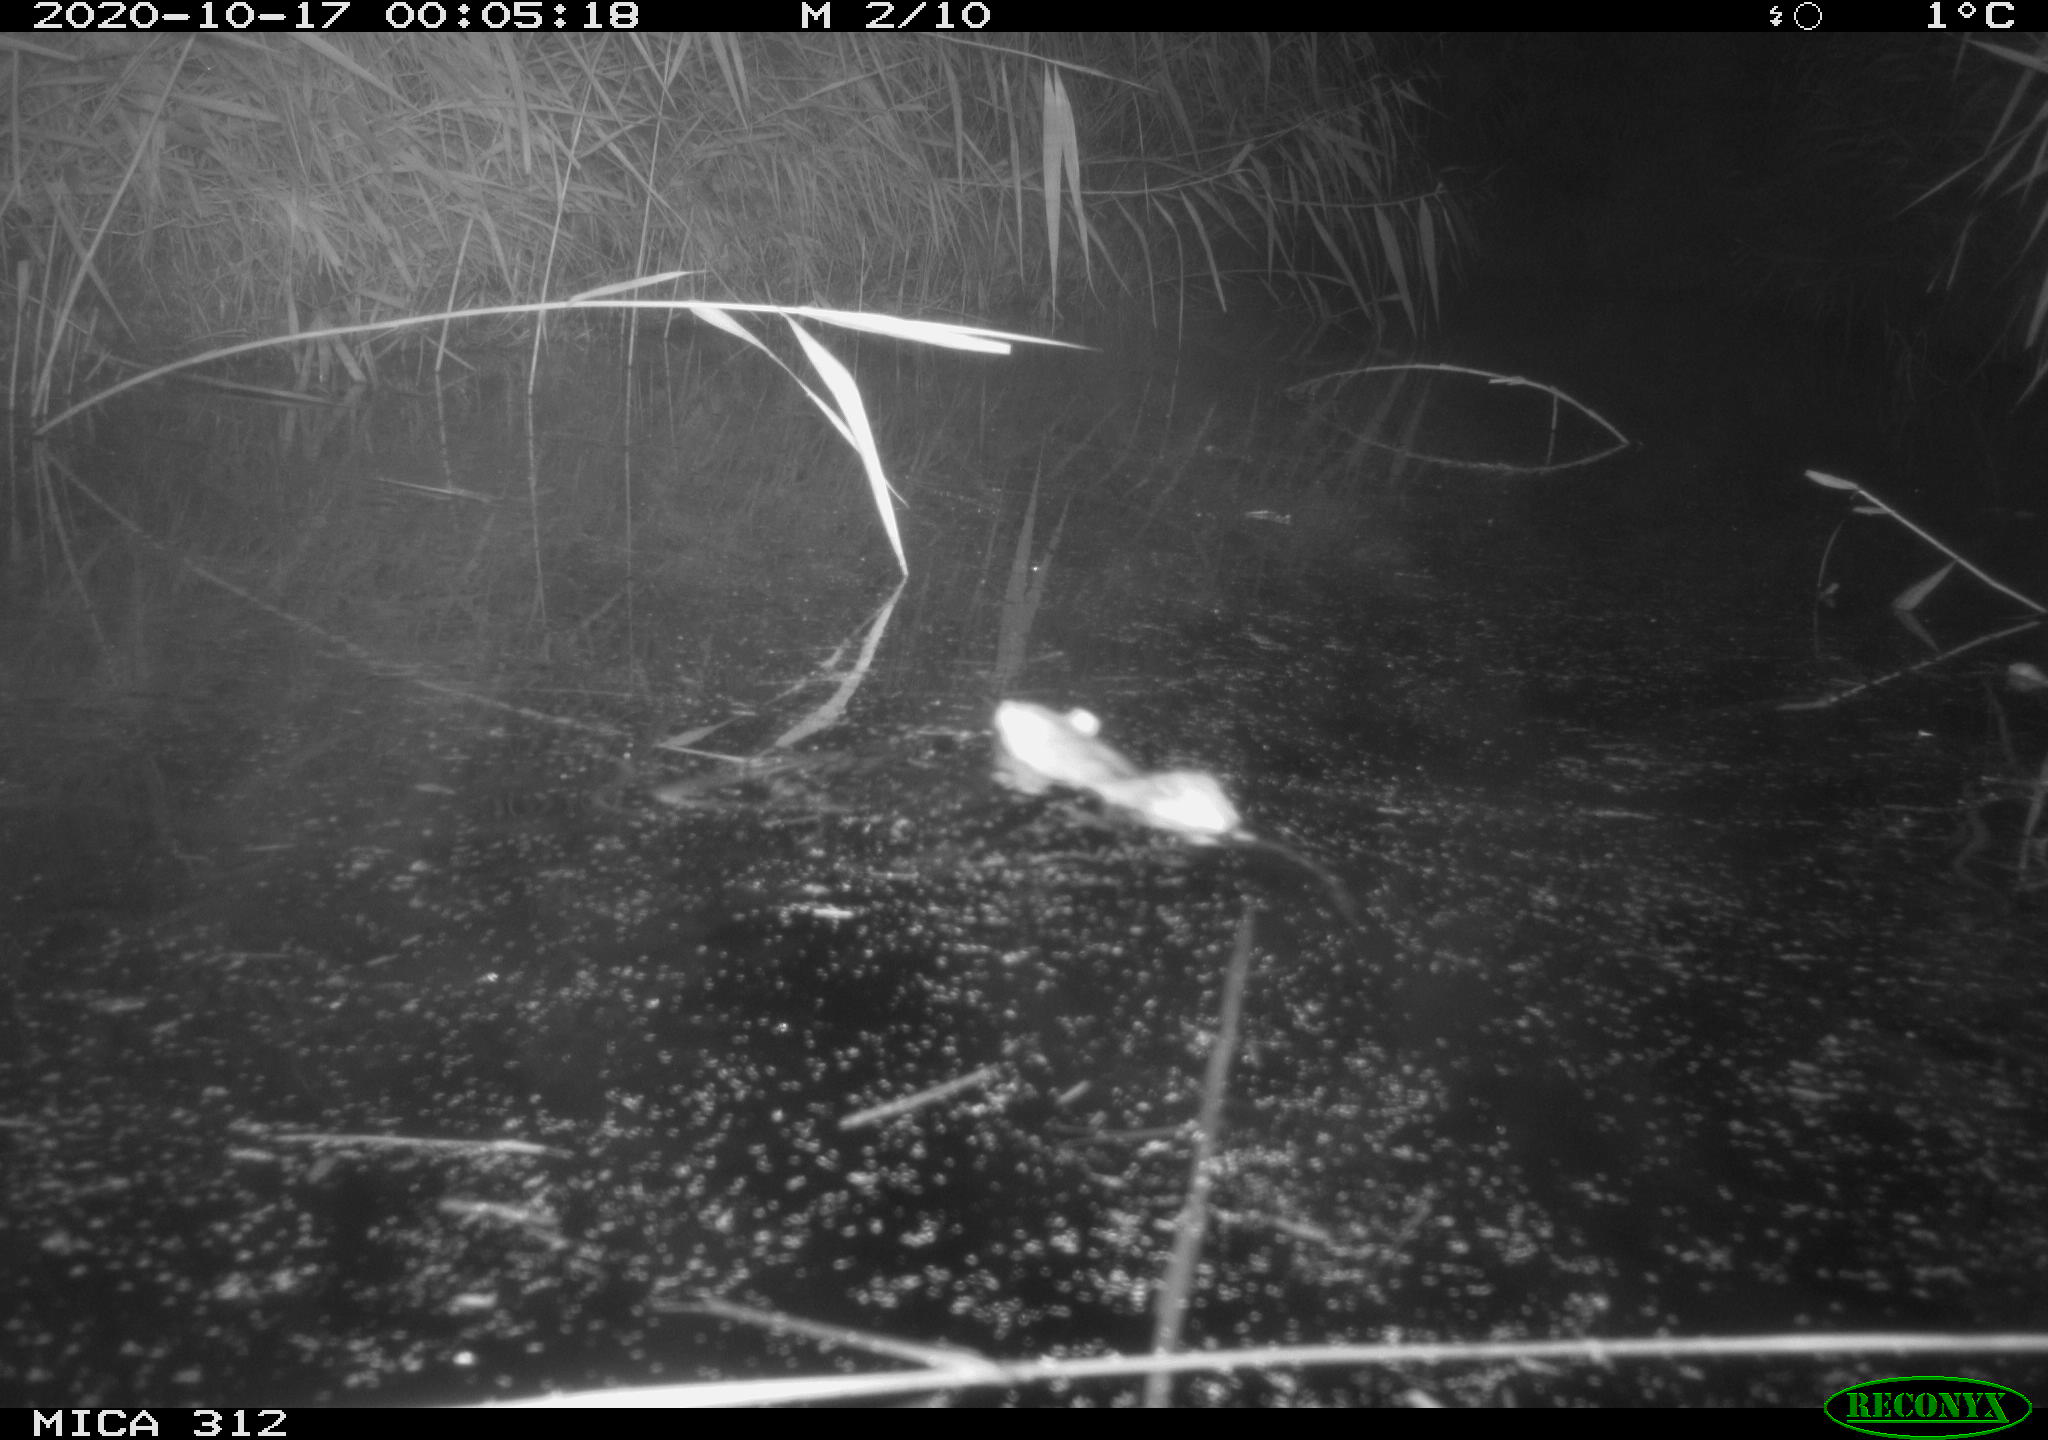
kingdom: Animalia
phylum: Chordata
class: Mammalia
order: Rodentia
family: Muridae
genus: Rattus
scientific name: Rattus norvegicus
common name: Brown rat
